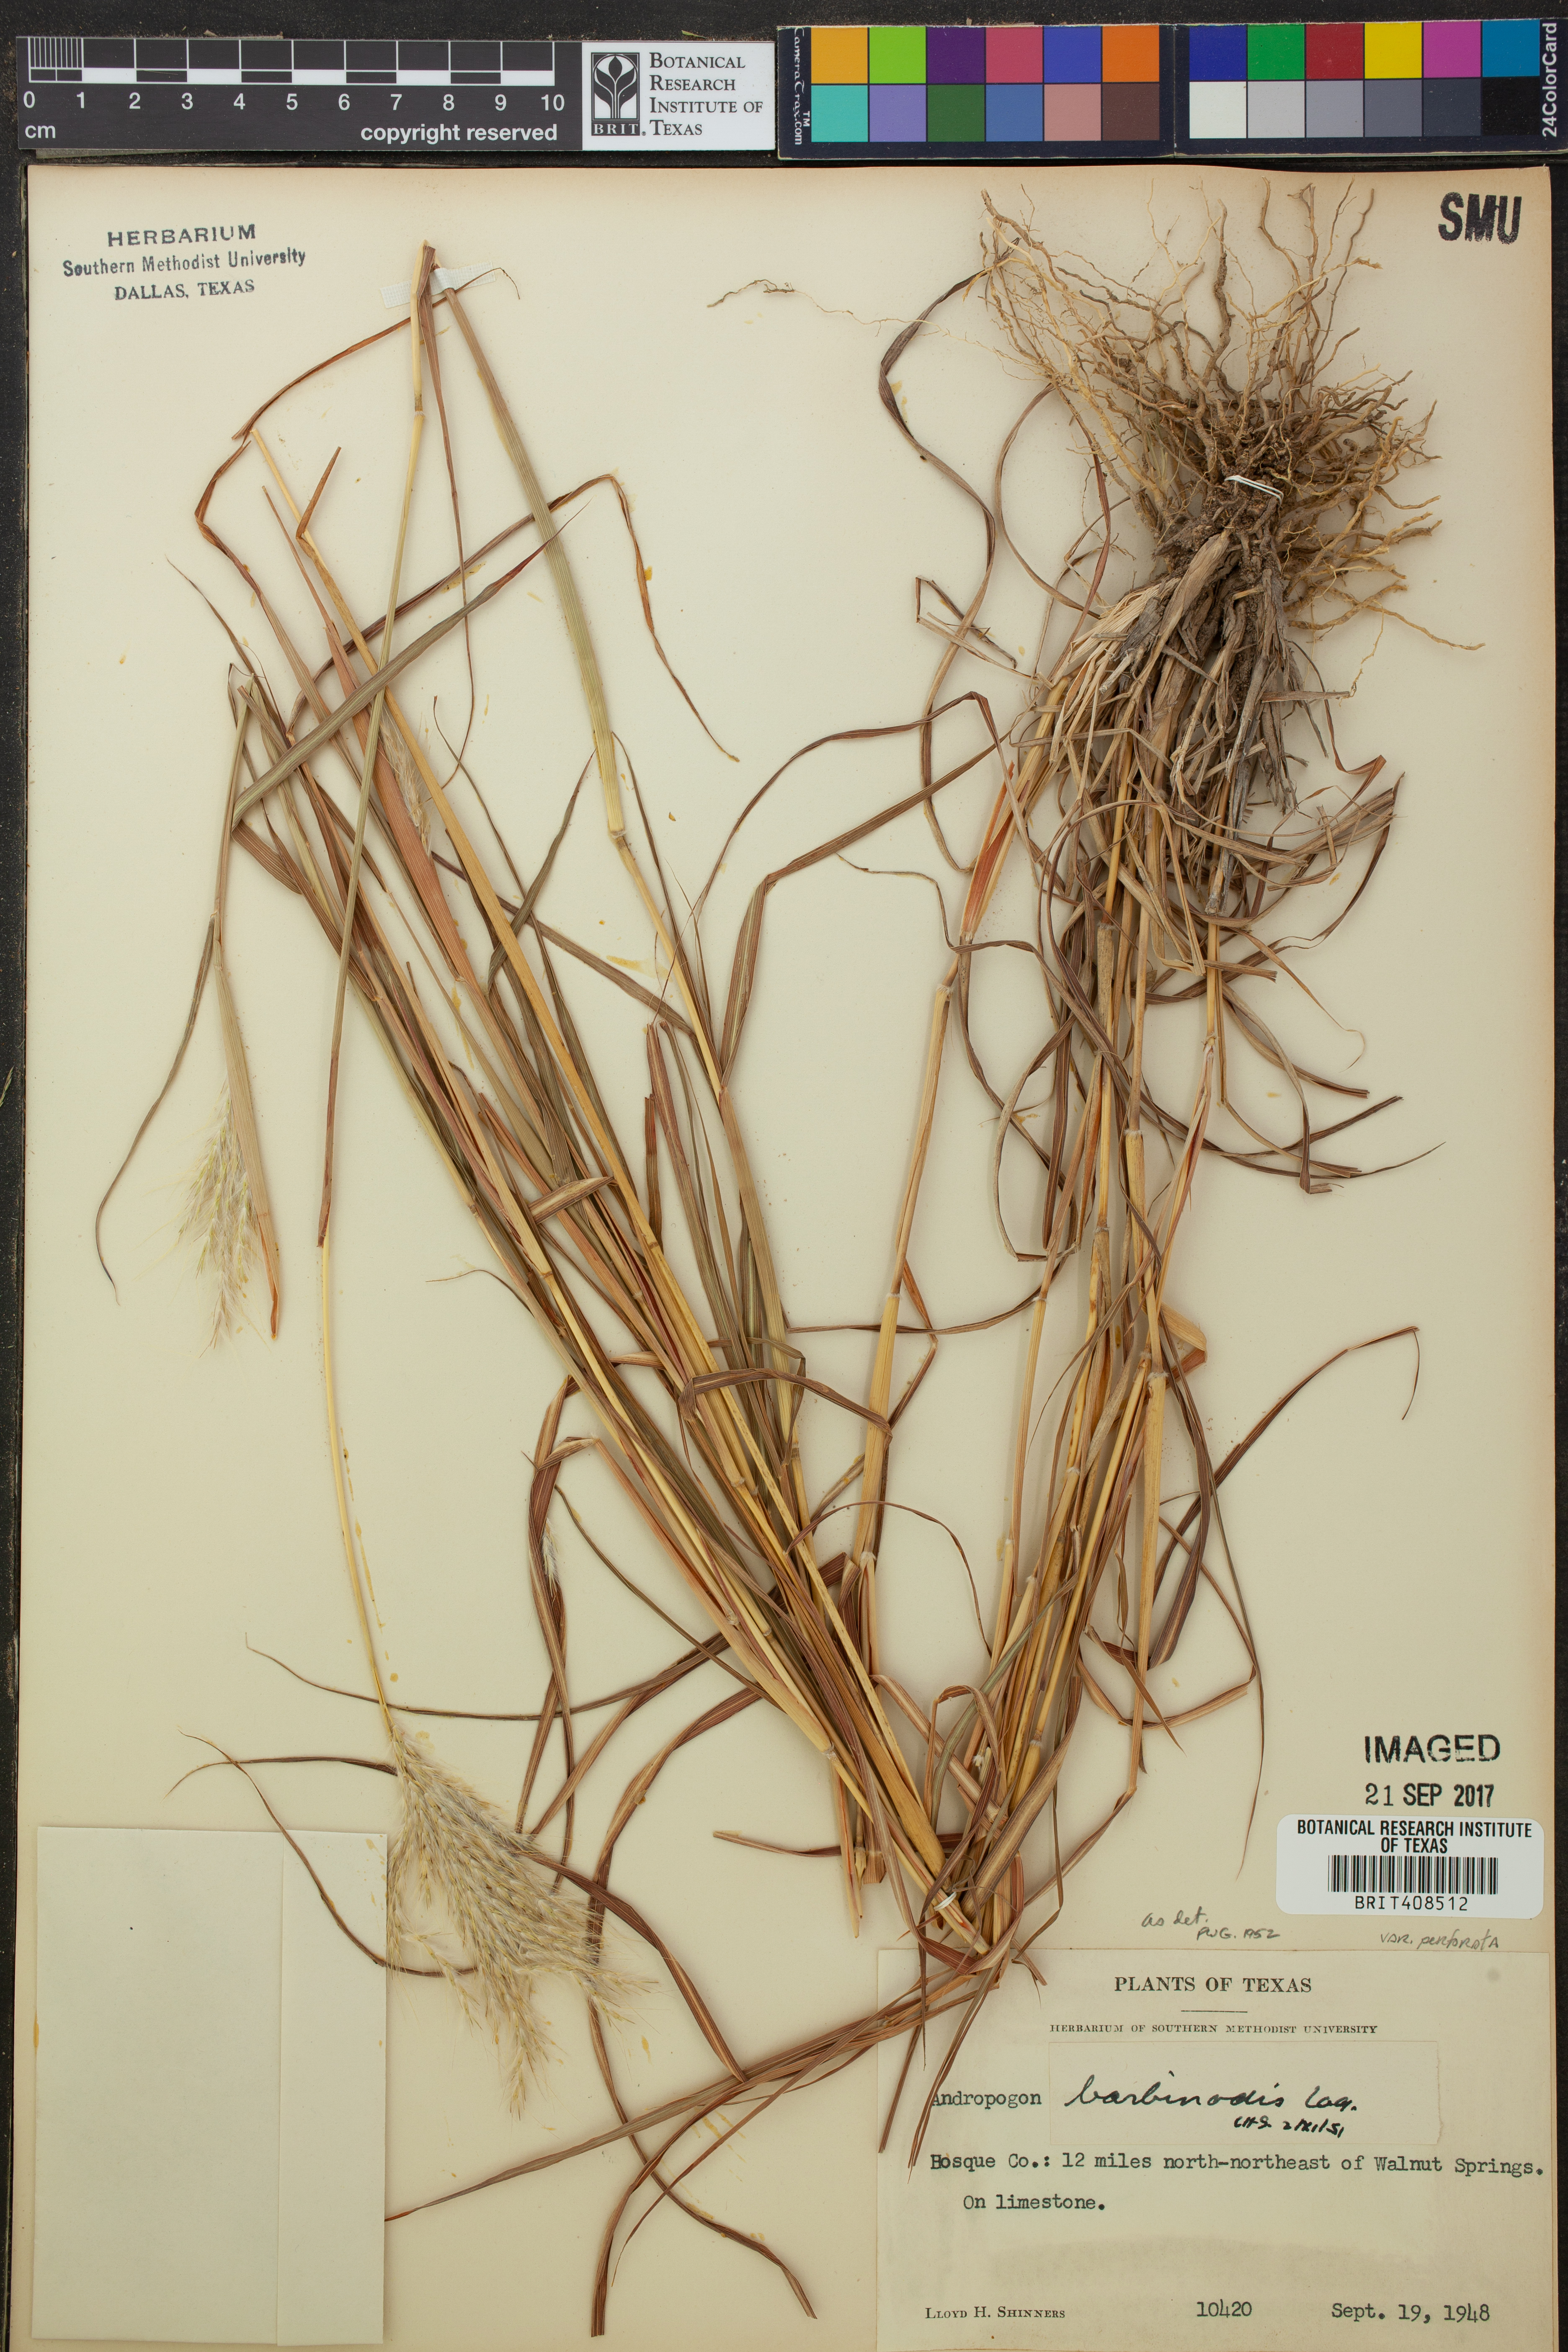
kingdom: Plantae
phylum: Tracheophyta
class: Liliopsida
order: Poales
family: Poaceae
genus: Bothriochloa
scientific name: Bothriochloa barbinodis
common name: Cane bluestem
